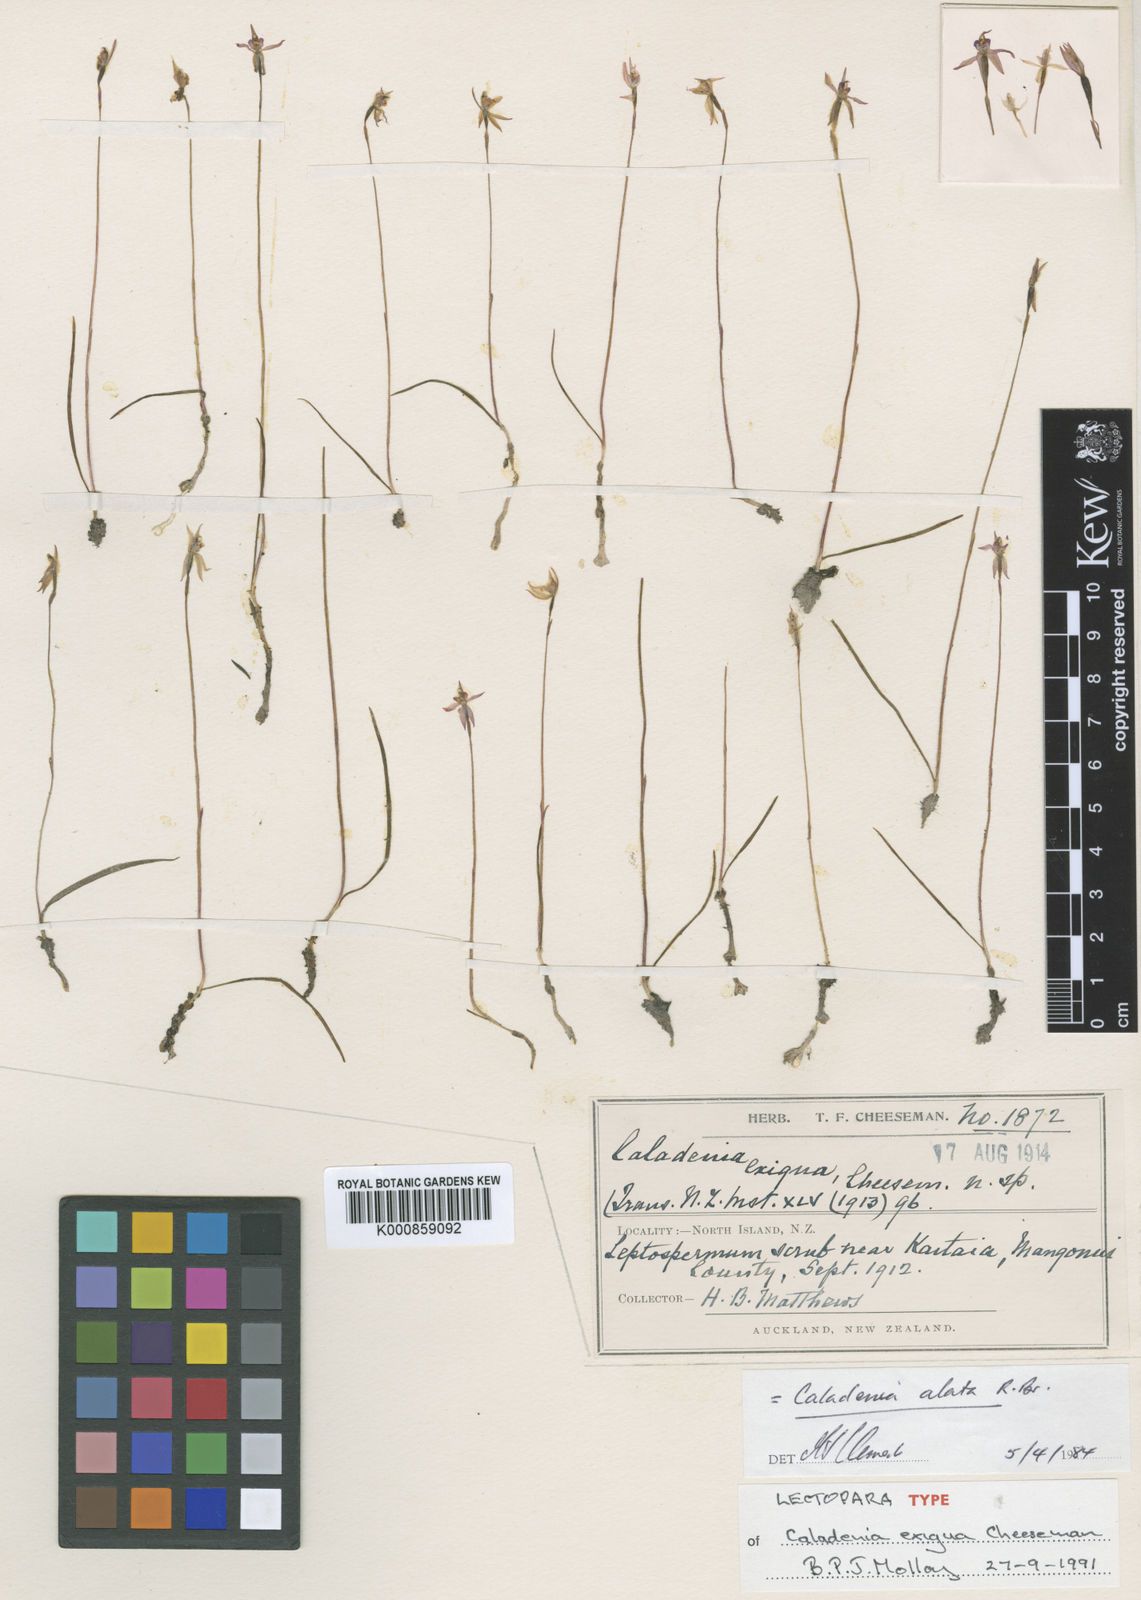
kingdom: Plantae
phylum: Tracheophyta
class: Liliopsida
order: Asparagales
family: Orchidaceae
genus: Caladenia
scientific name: Caladenia alata
